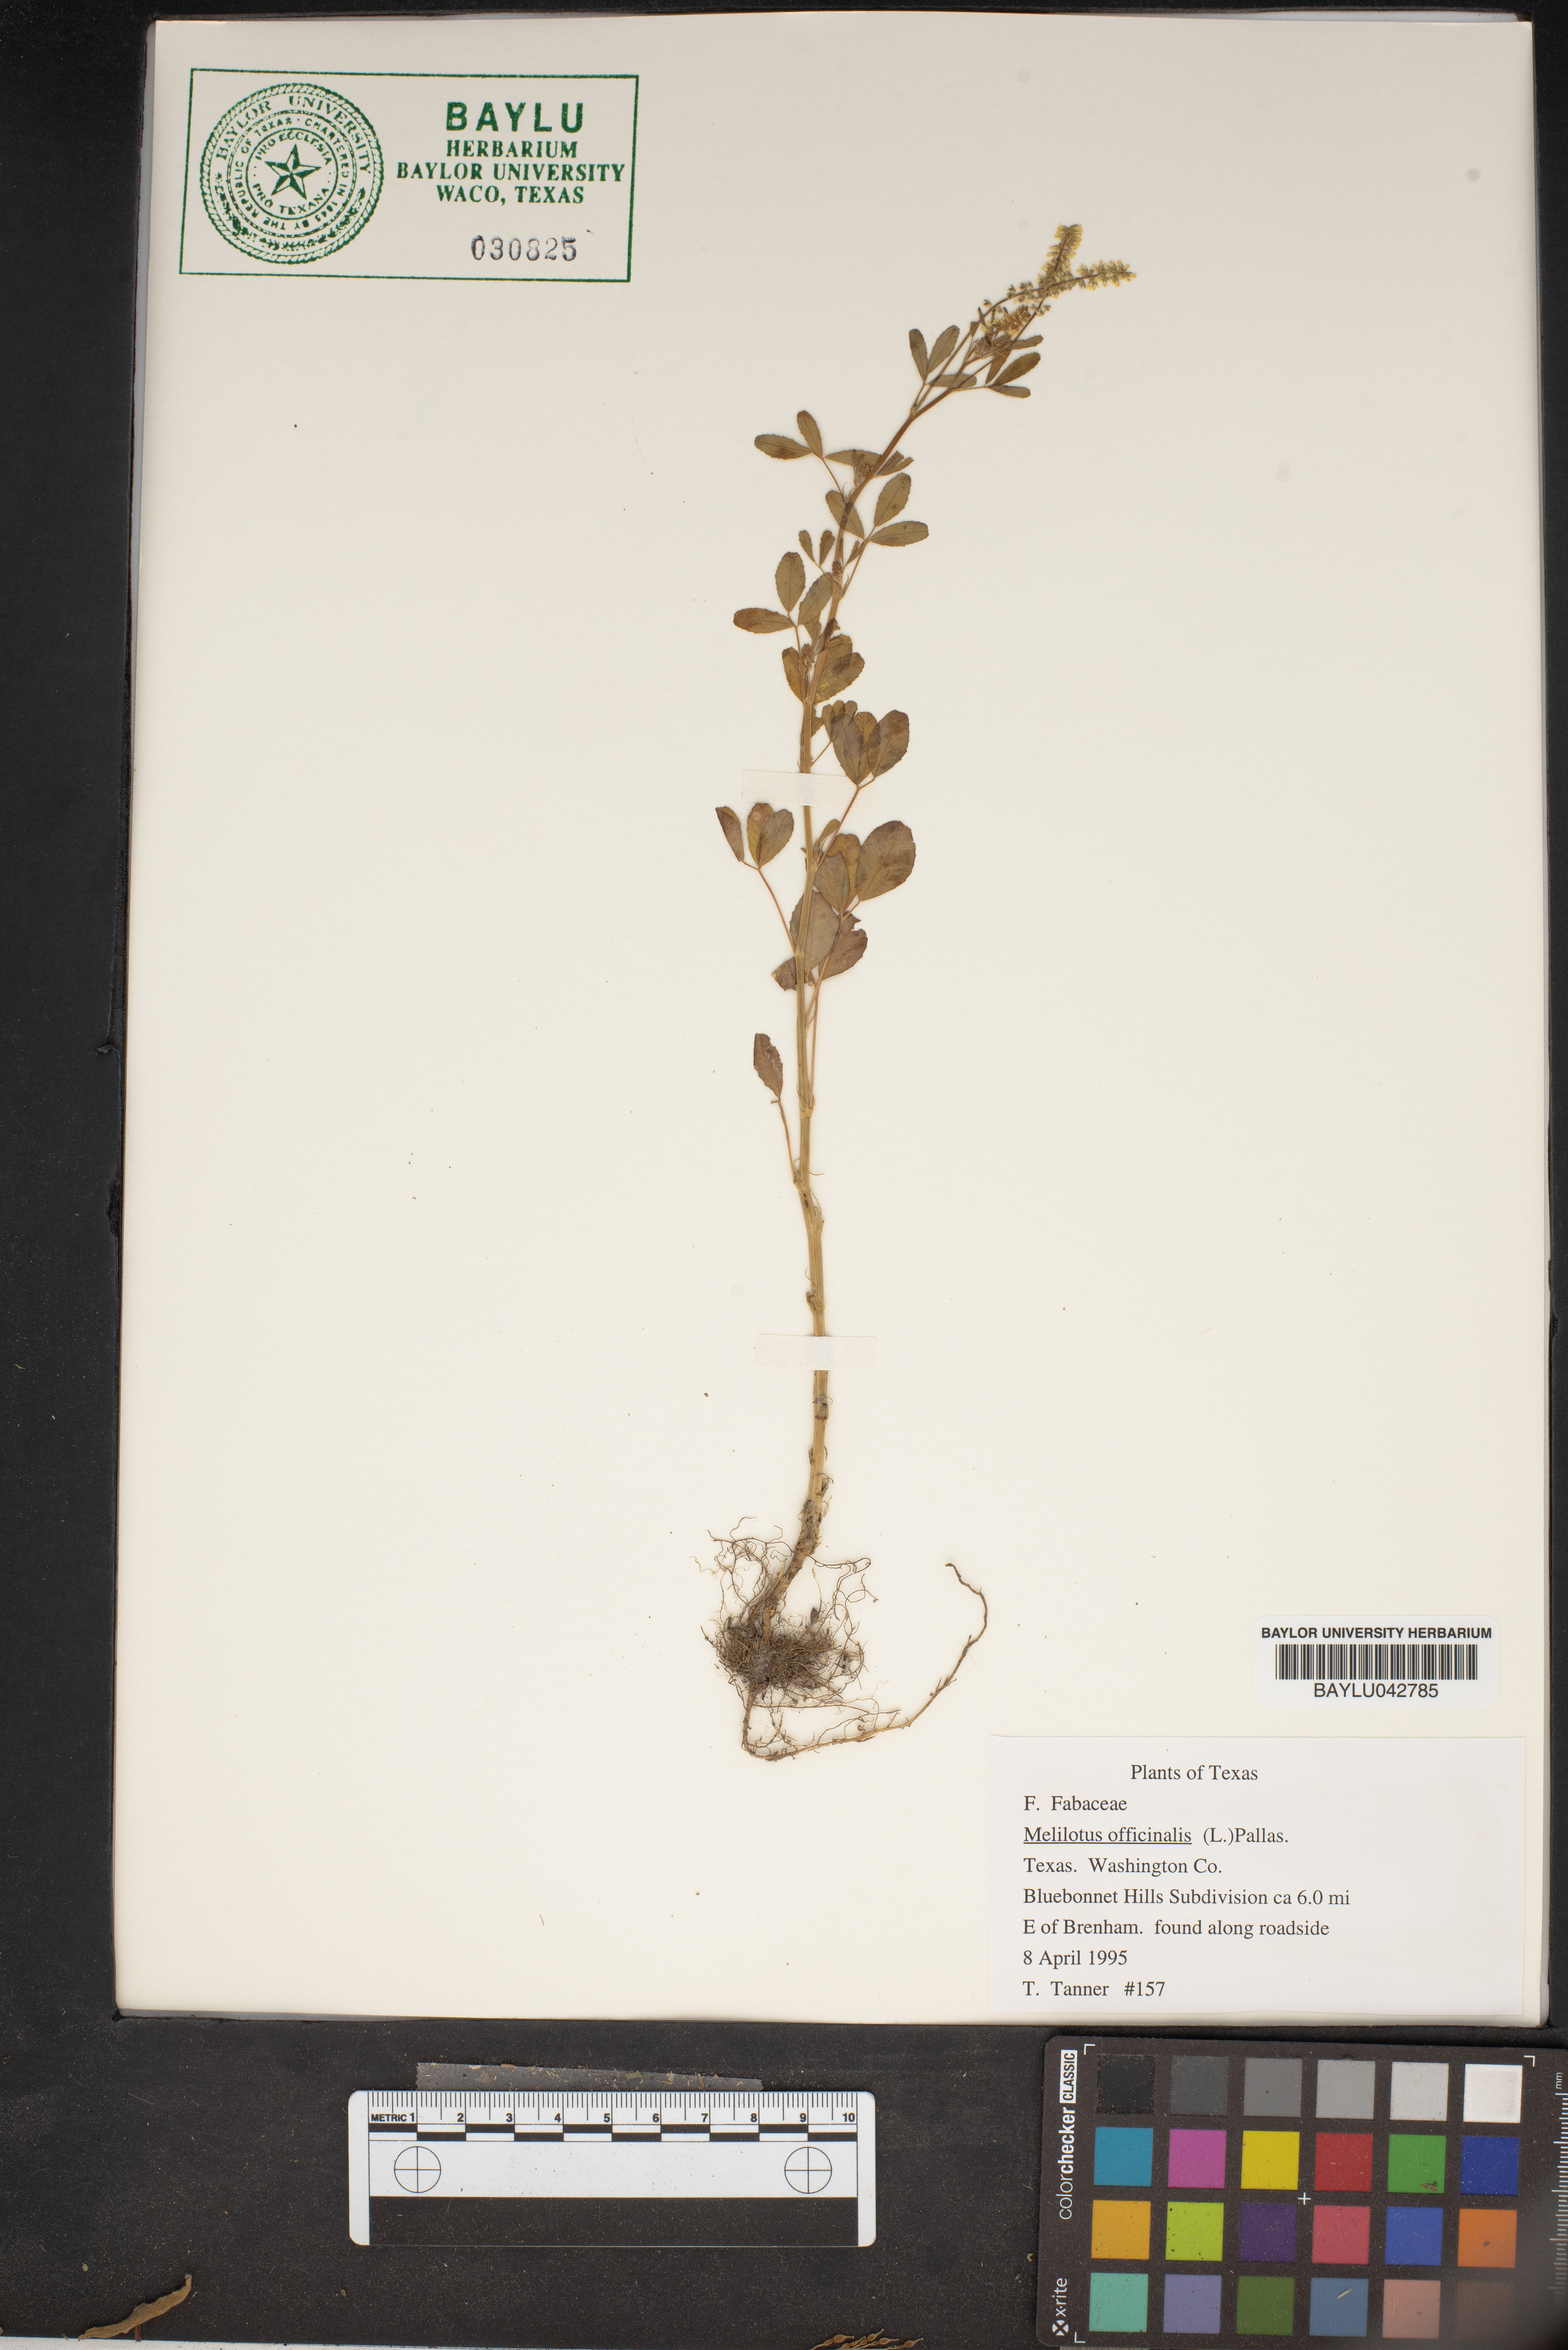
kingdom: Plantae
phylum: Tracheophyta
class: Magnoliopsida
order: Fabales
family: Fabaceae
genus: Melilotus
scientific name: Melilotus officinalis
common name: Sweetclover
